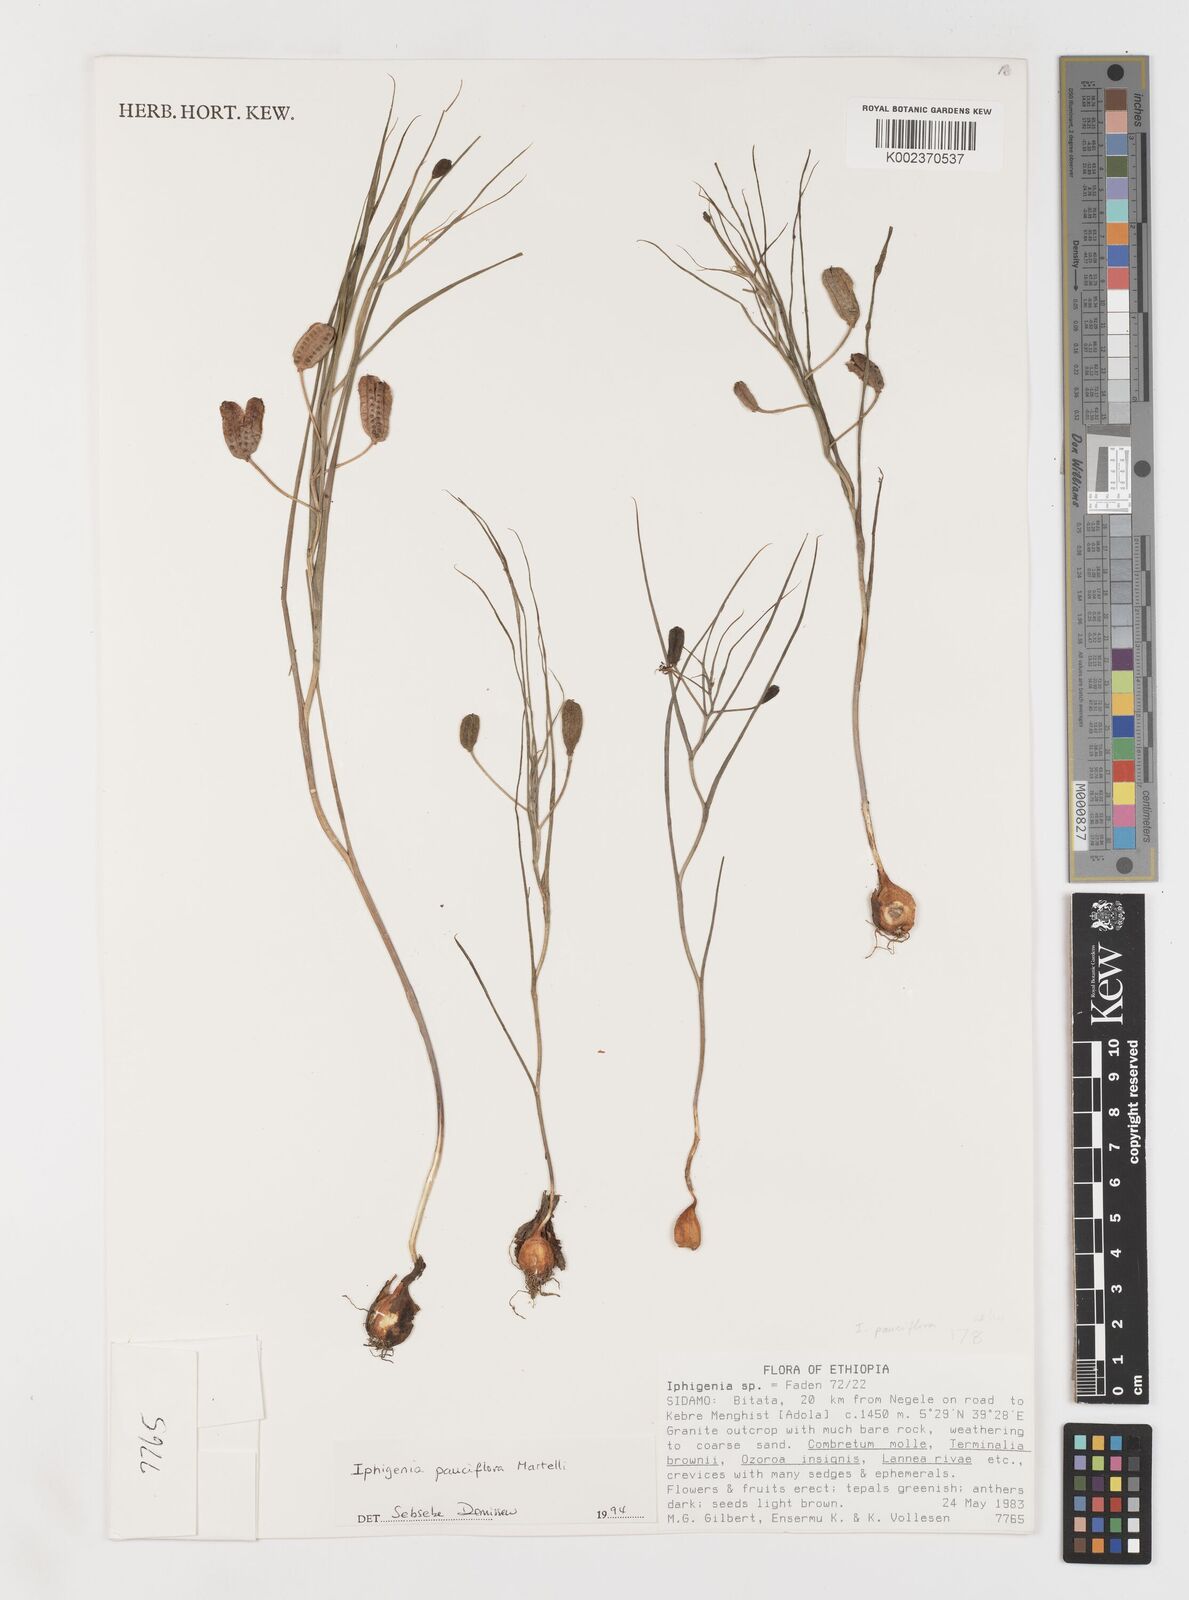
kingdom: Plantae
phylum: Tracheophyta
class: Liliopsida
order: Liliales
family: Colchicaceae
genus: Iphigenia
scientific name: Iphigenia pauciflora
